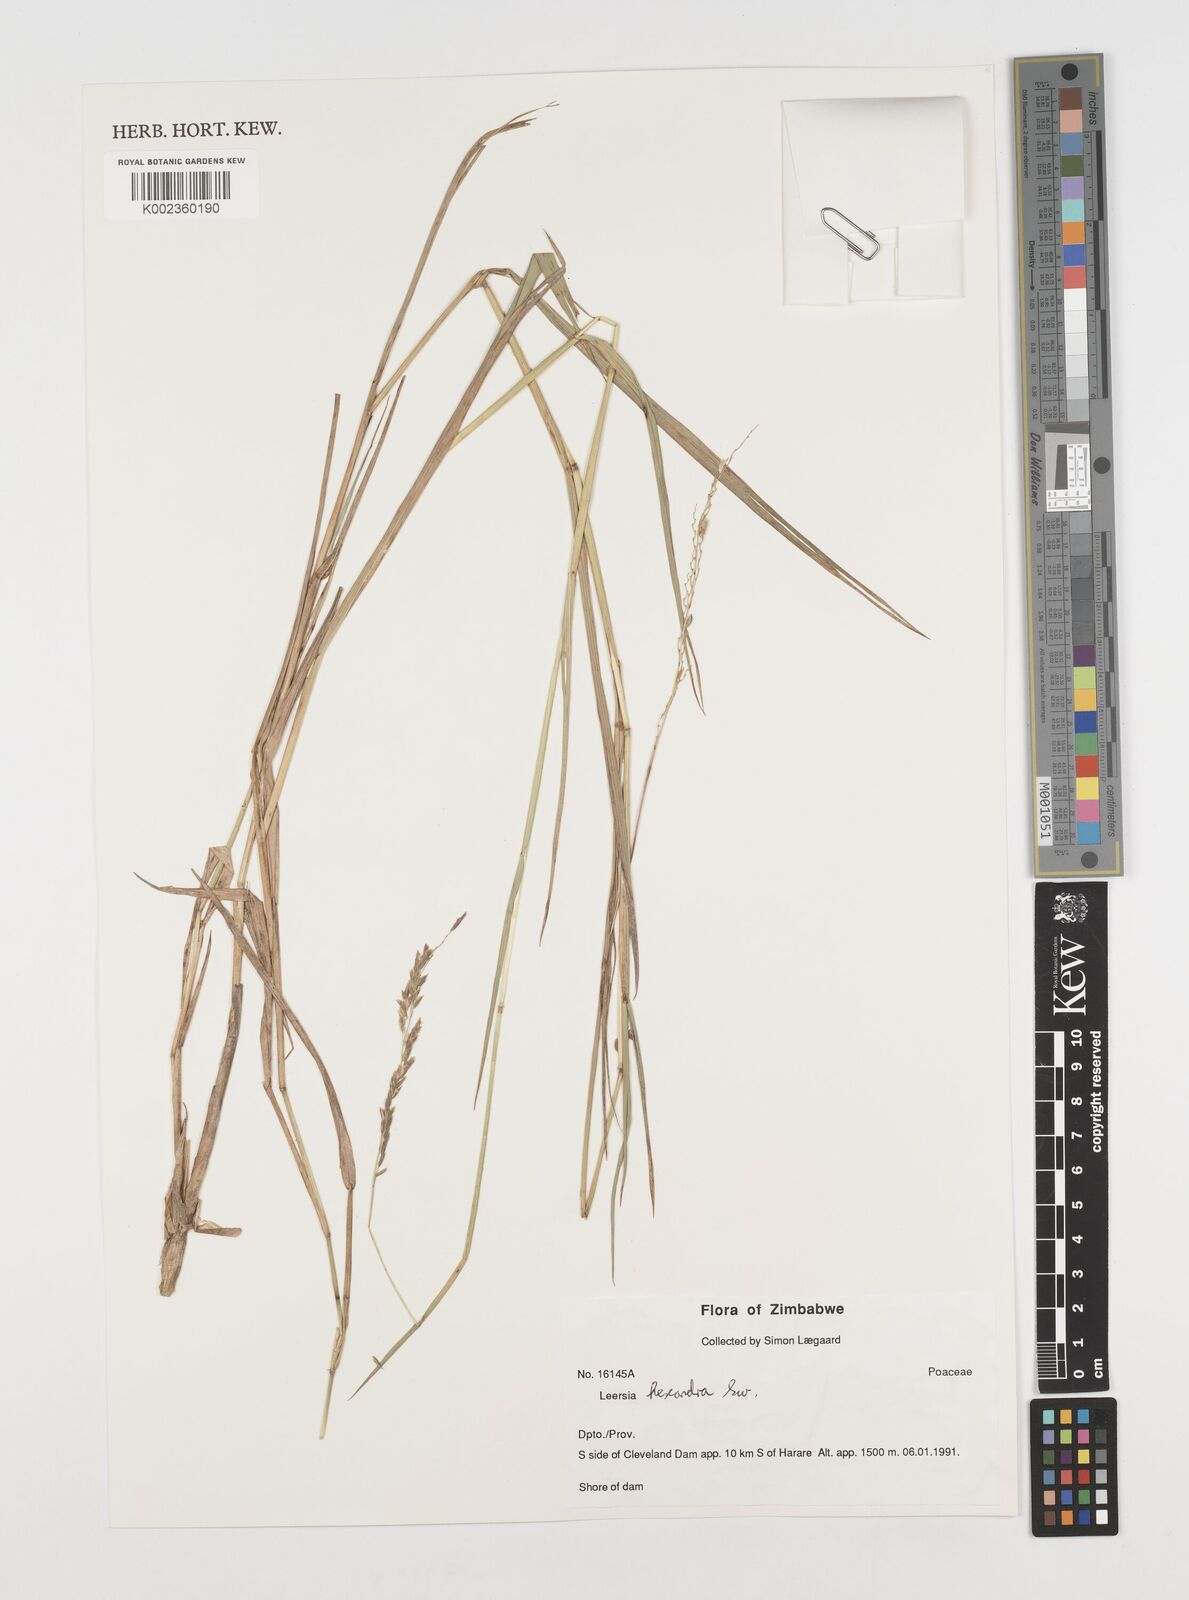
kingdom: Plantae
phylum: Tracheophyta
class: Liliopsida
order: Poales
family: Poaceae
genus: Leersia
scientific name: Leersia hexandra
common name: Southern cut grass
